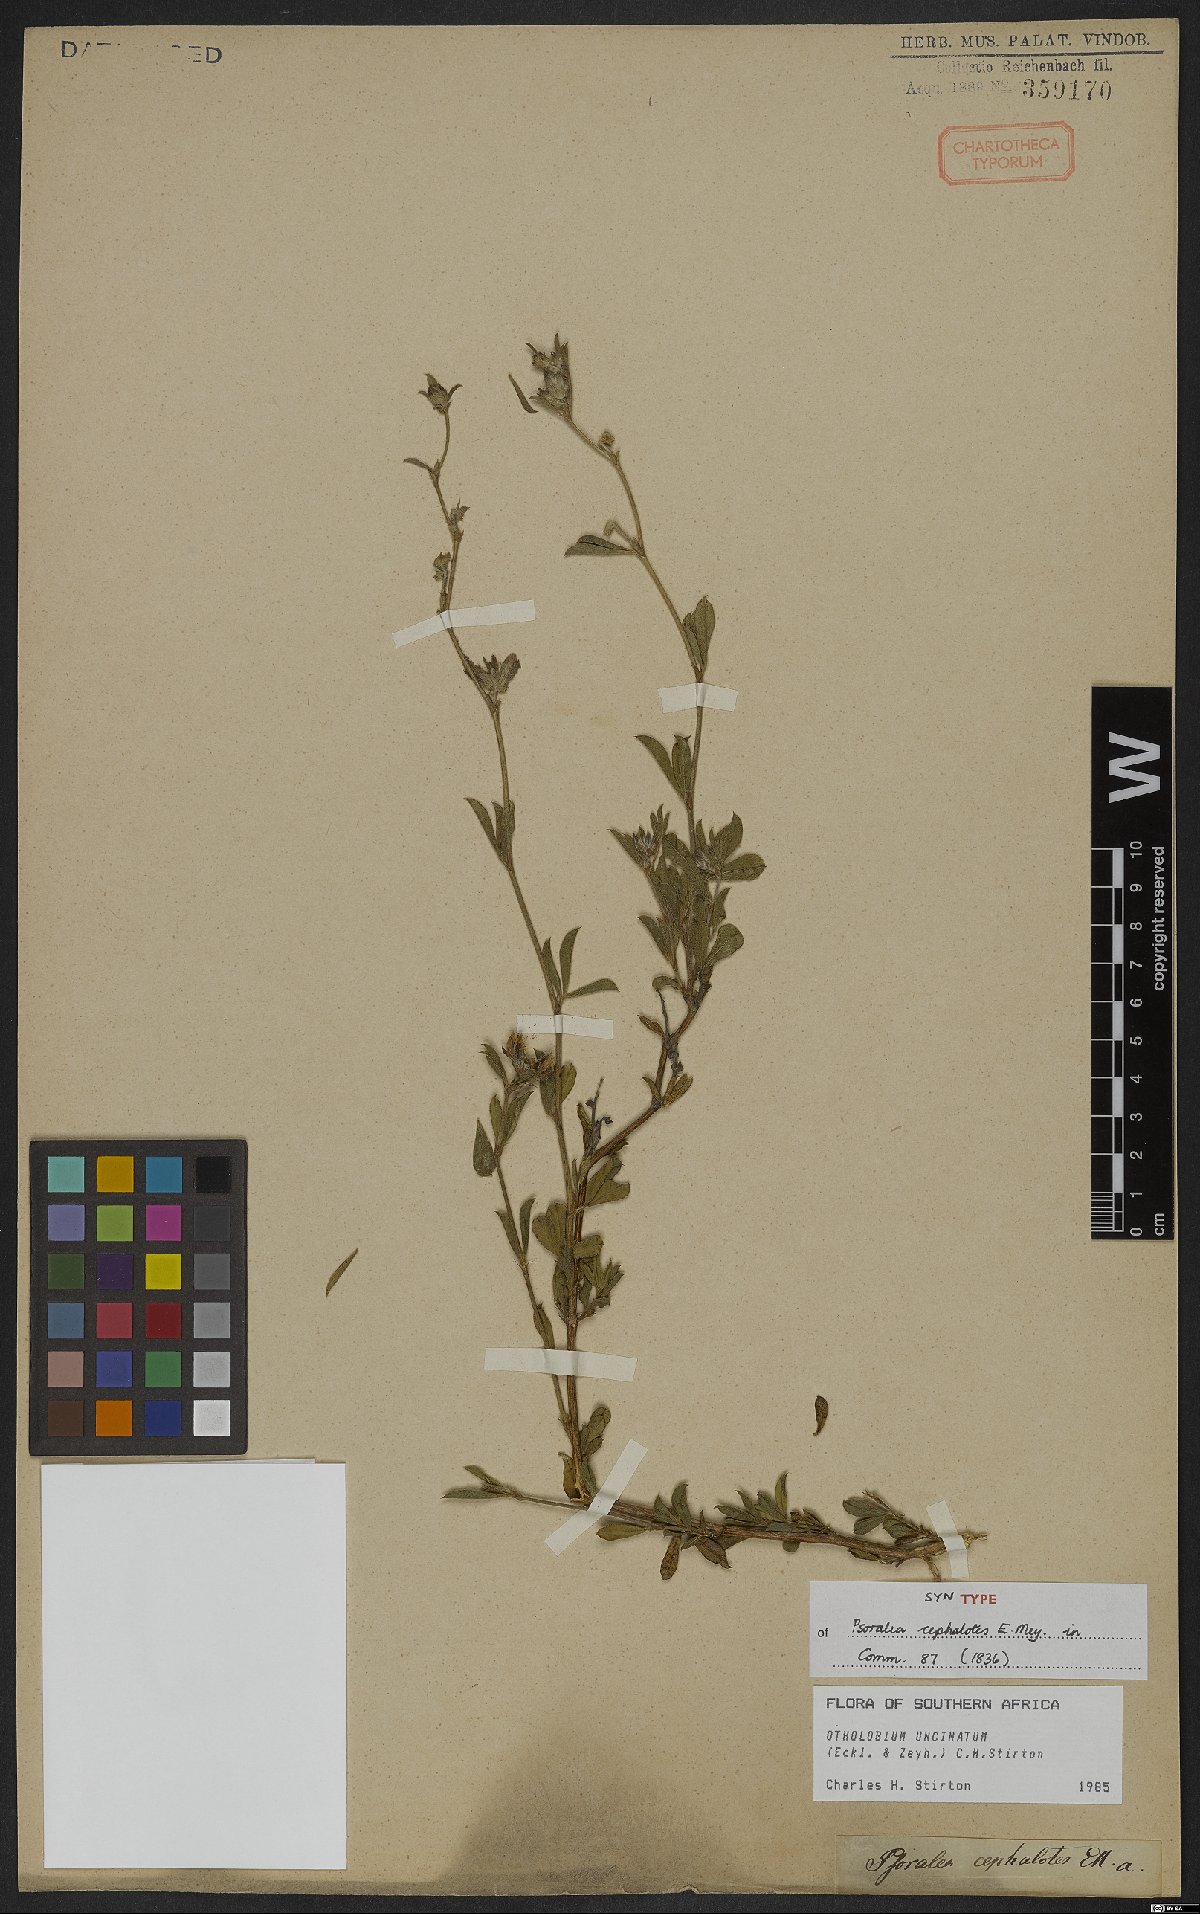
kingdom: Plantae
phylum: Tracheophyta
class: Magnoliopsida
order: Fabales
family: Fabaceae
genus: Psoralea
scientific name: Psoralea uncinata
